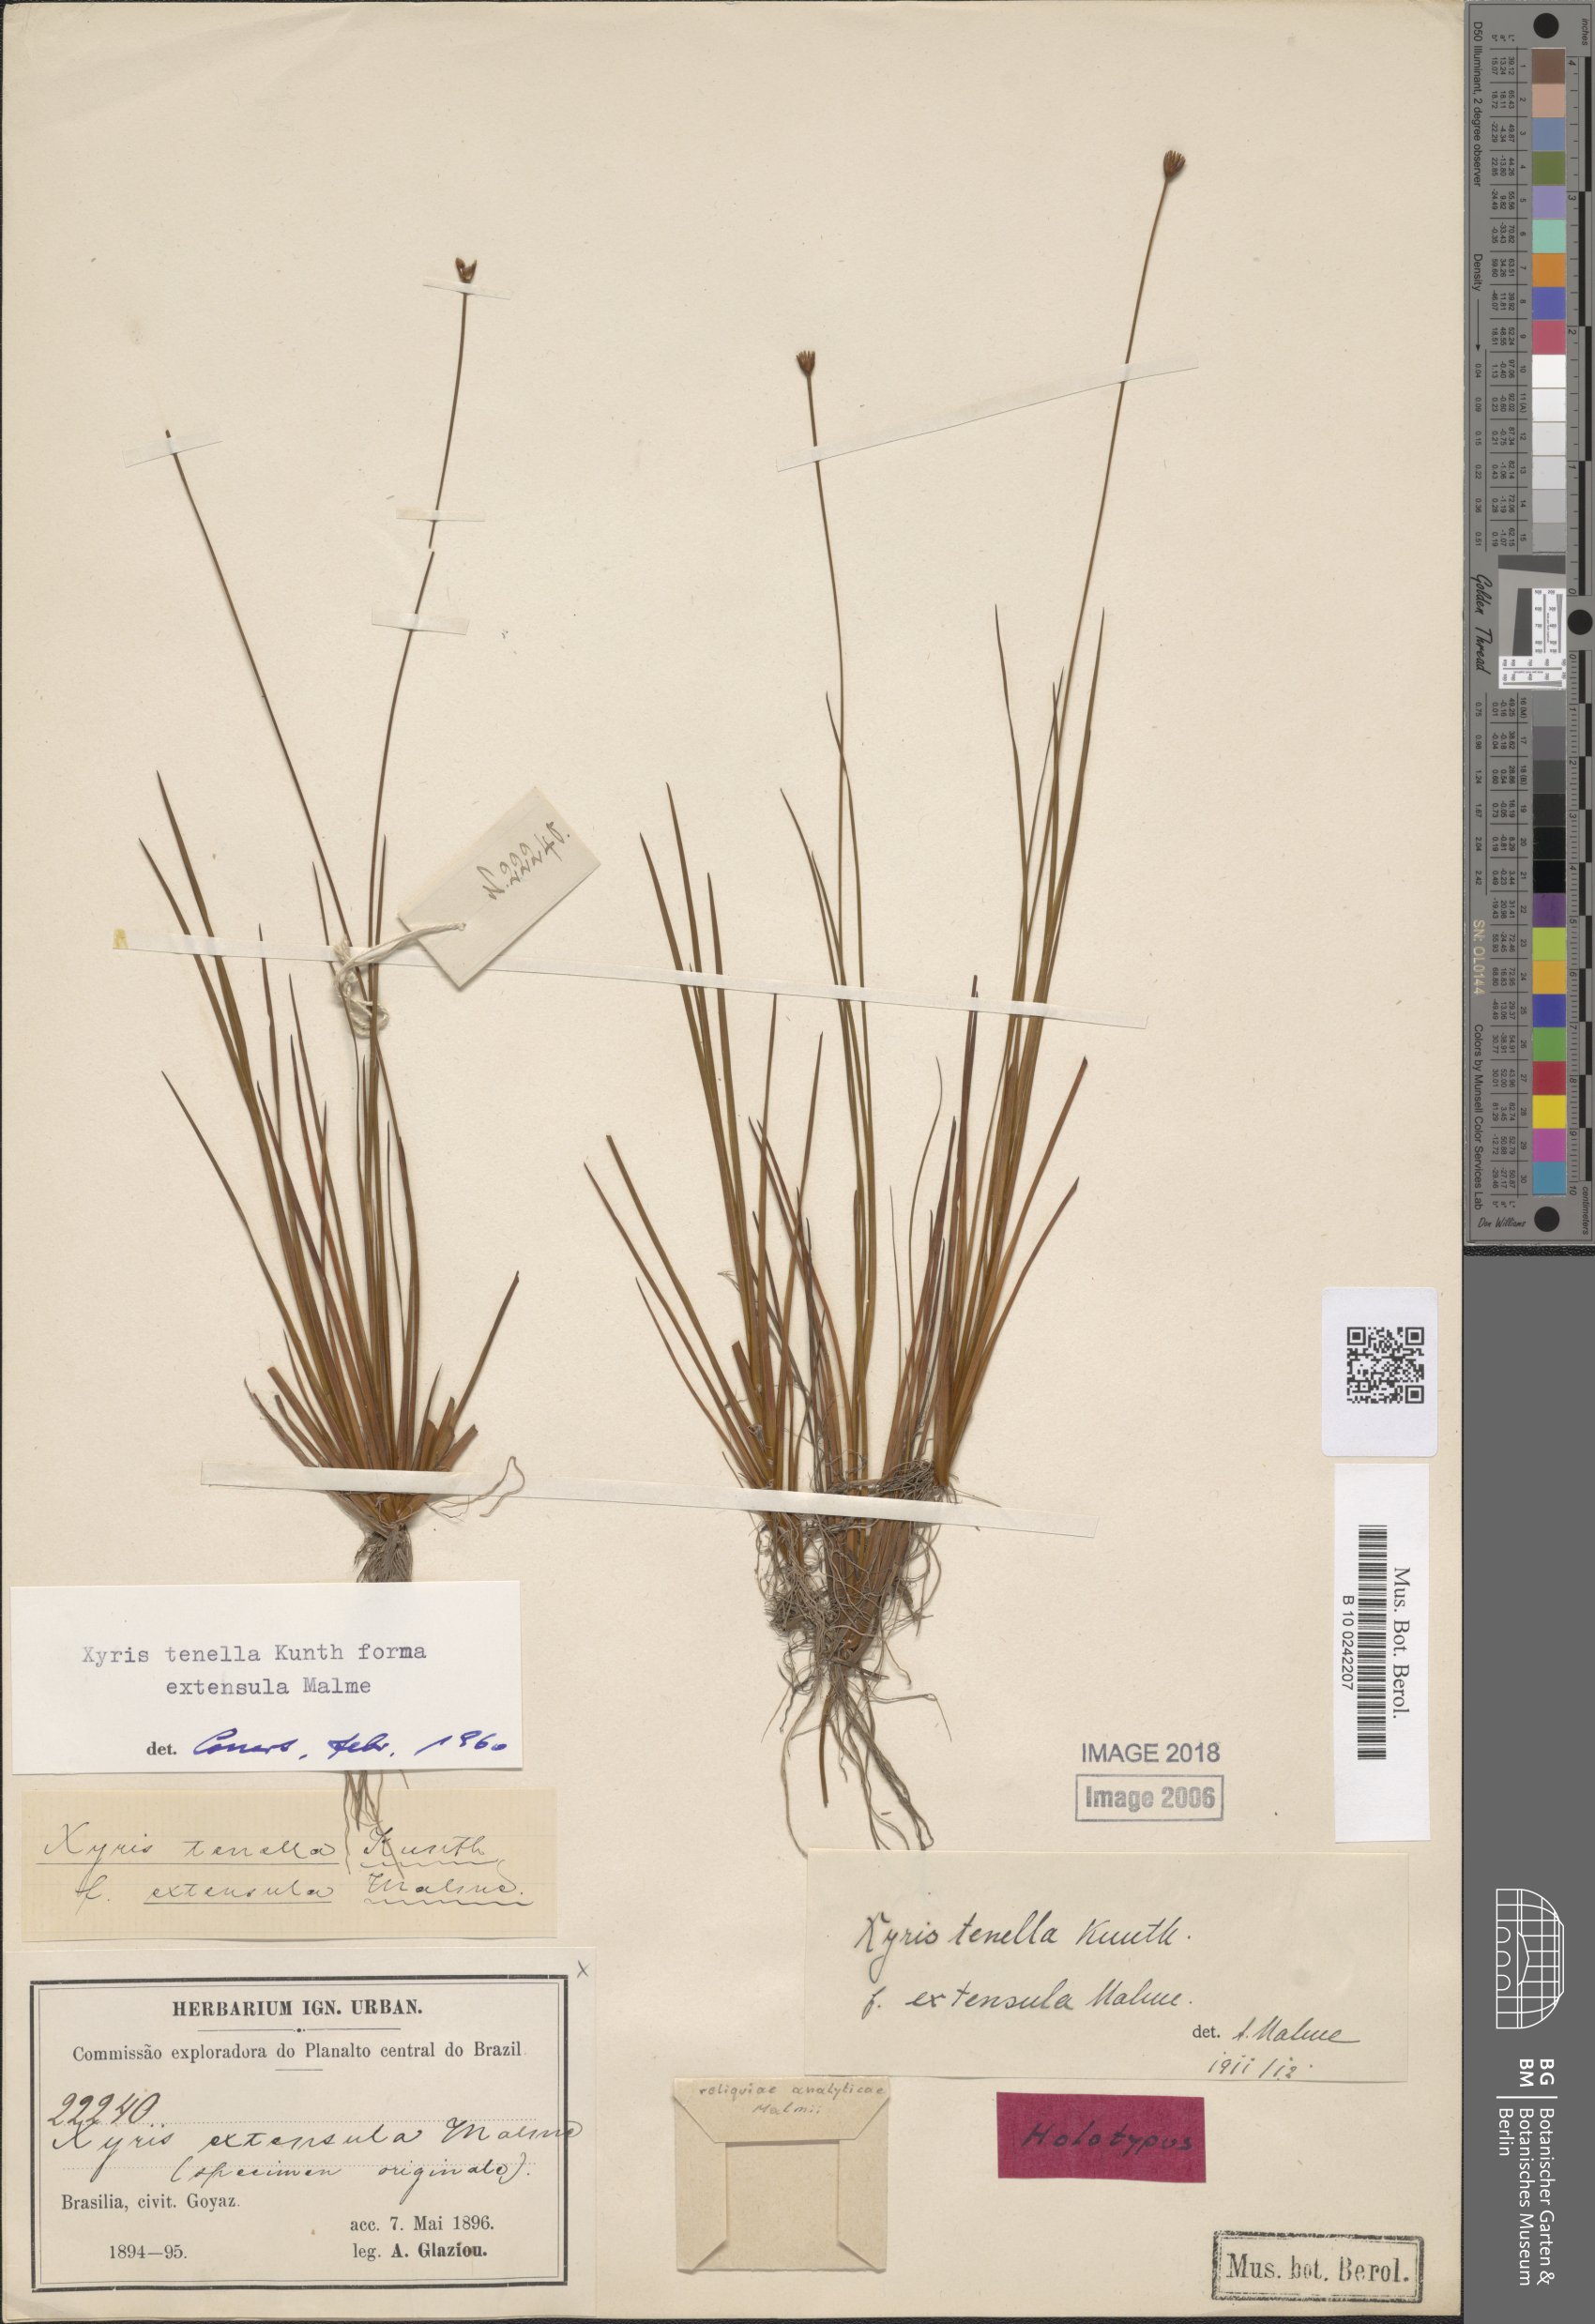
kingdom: Plantae
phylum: Tracheophyta
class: Liliopsida
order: Poales
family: Xyridaceae
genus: Xyris
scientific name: Xyris tenella
